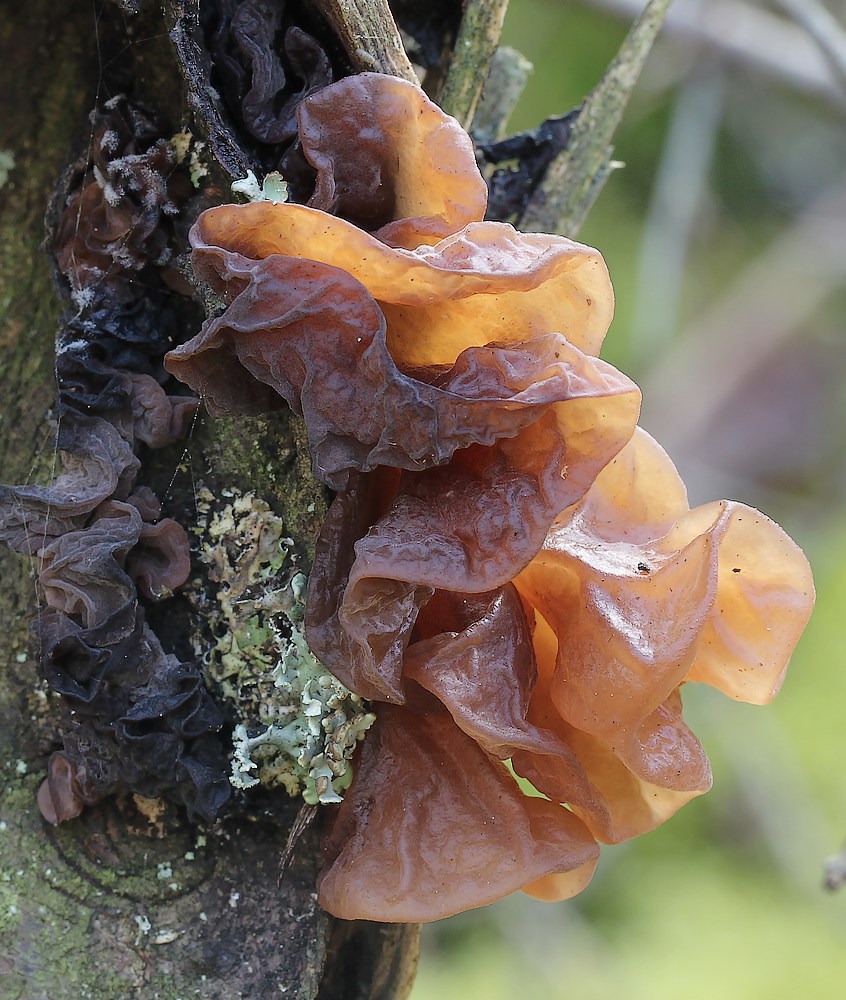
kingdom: Fungi
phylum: Basidiomycota
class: Tremellomycetes
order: Tremellales
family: Tremellaceae
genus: Phaeotremella
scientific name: Phaeotremella frondosa
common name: kæmpe-bævresvamp
